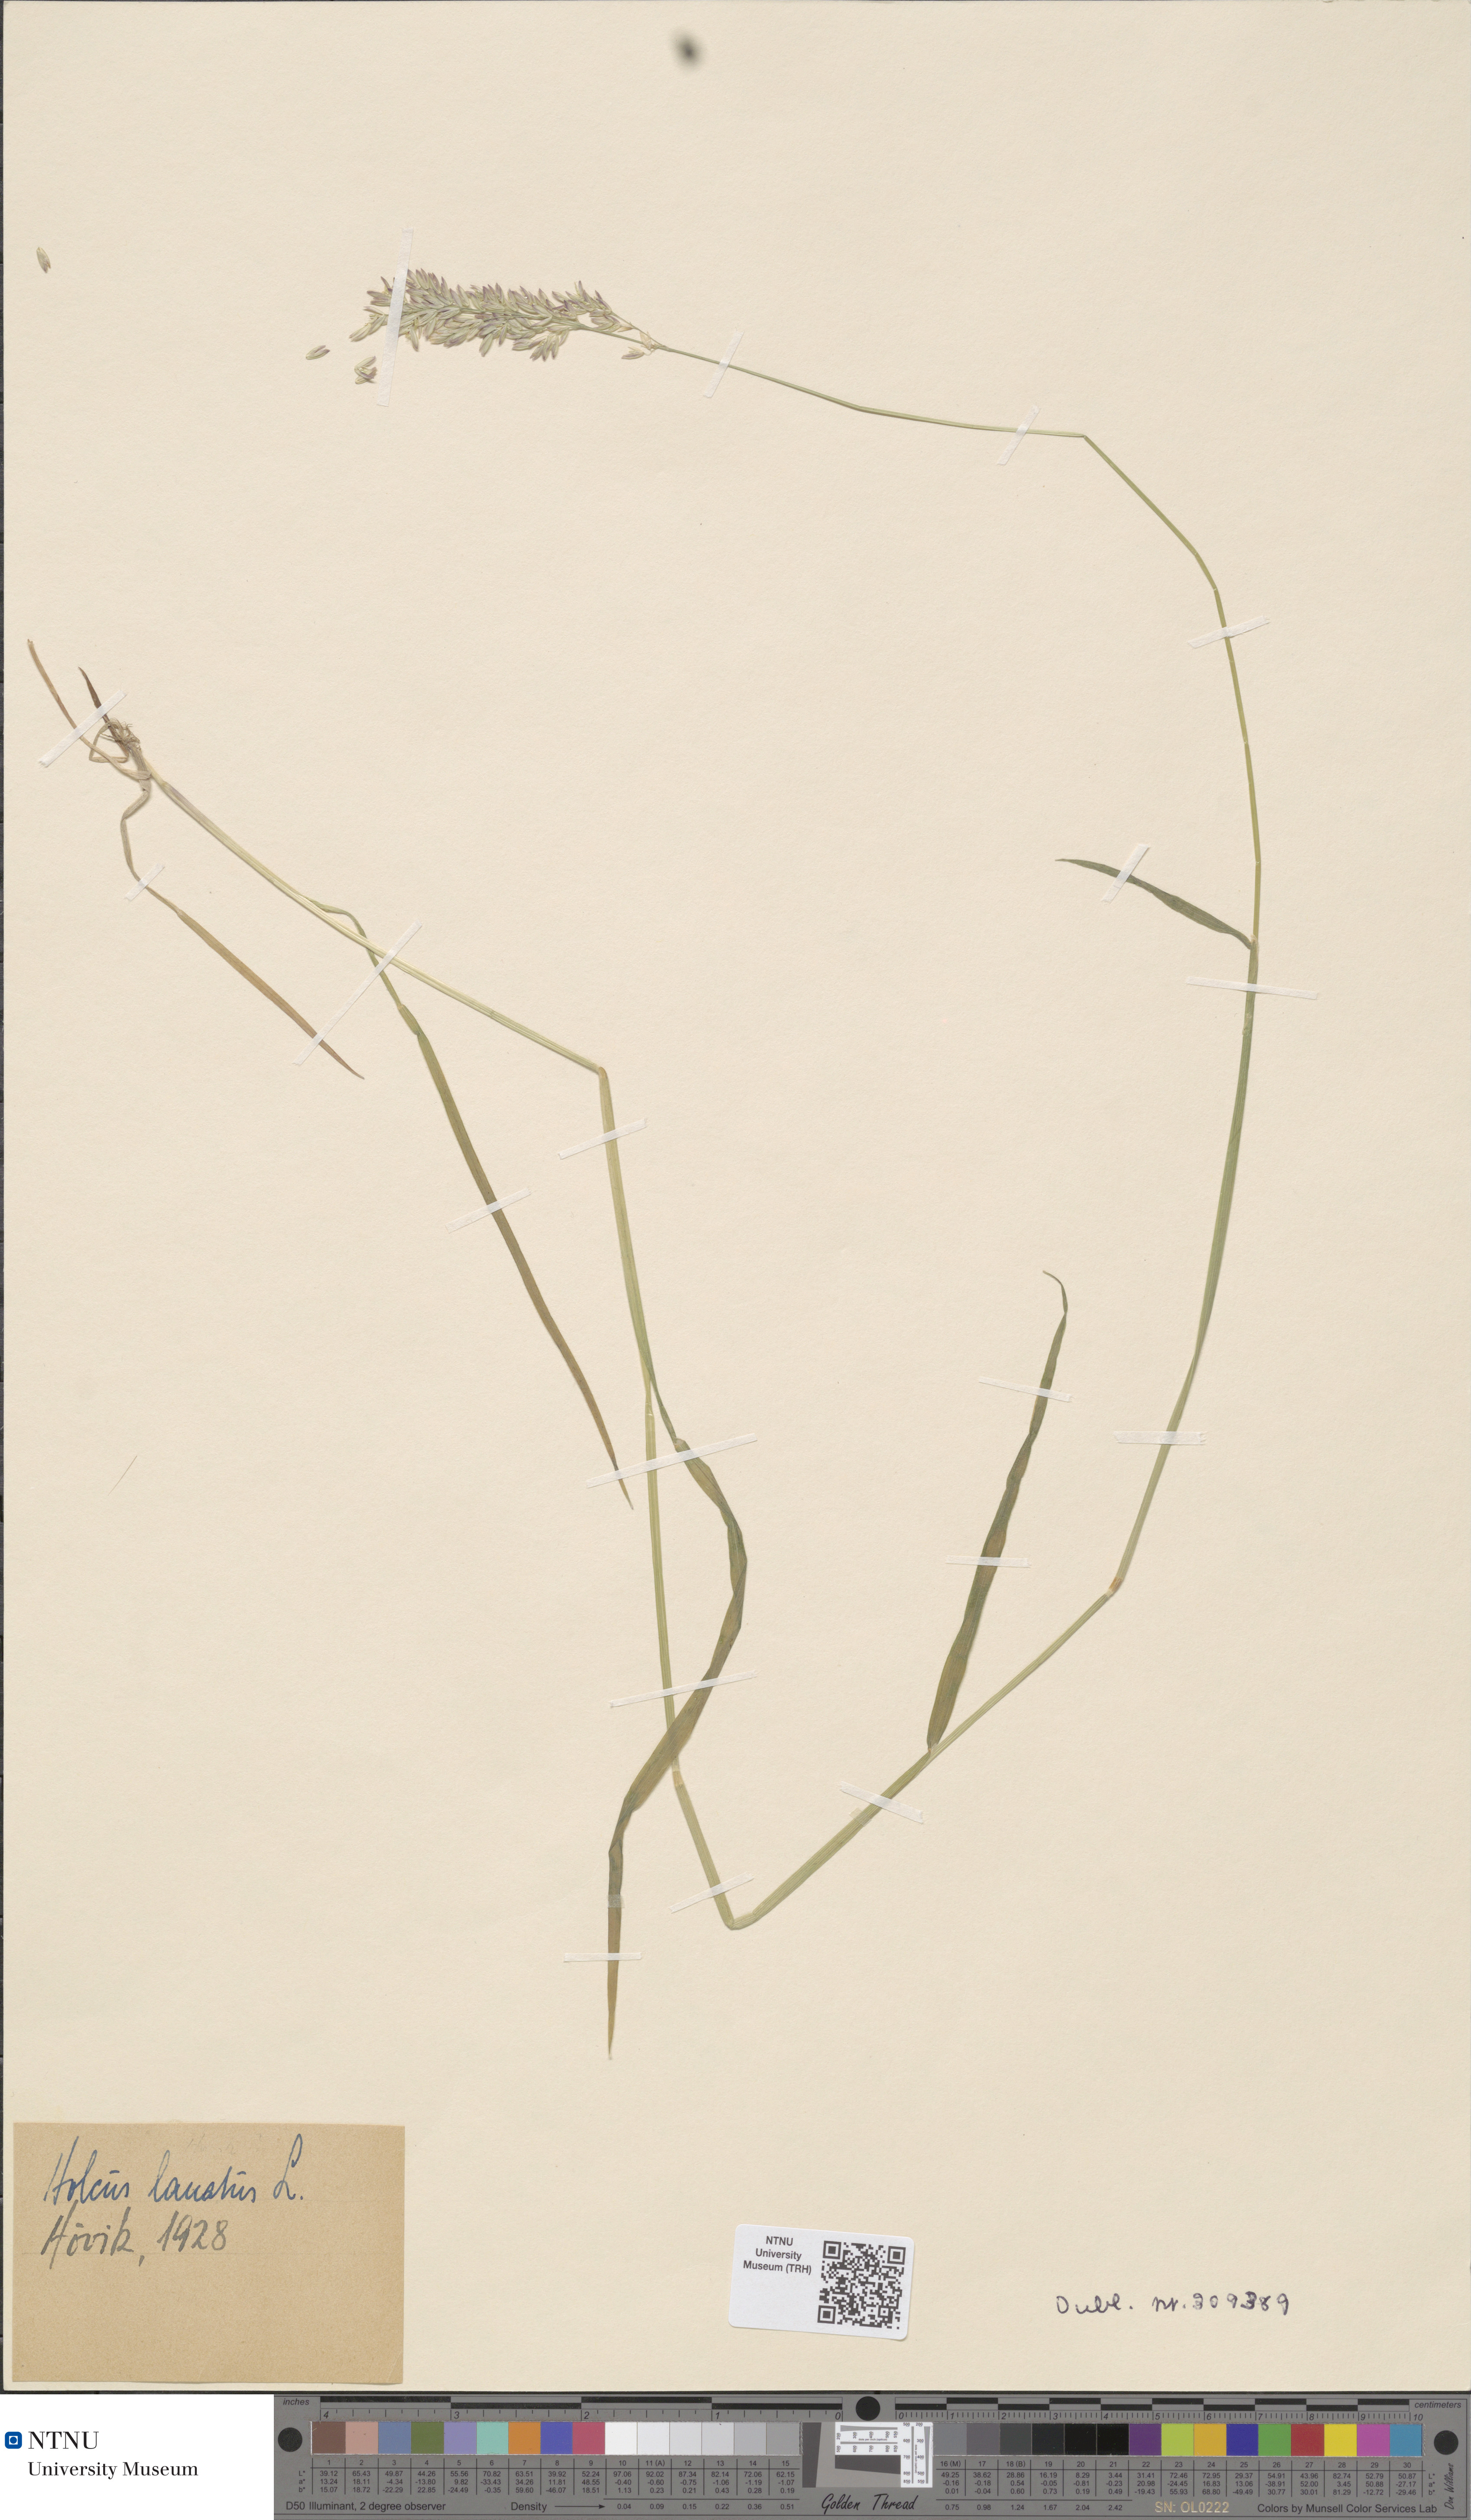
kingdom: Plantae
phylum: Tracheophyta
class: Liliopsida
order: Poales
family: Poaceae
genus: Holcus
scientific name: Holcus lanatus
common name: Yorkshire-fog
